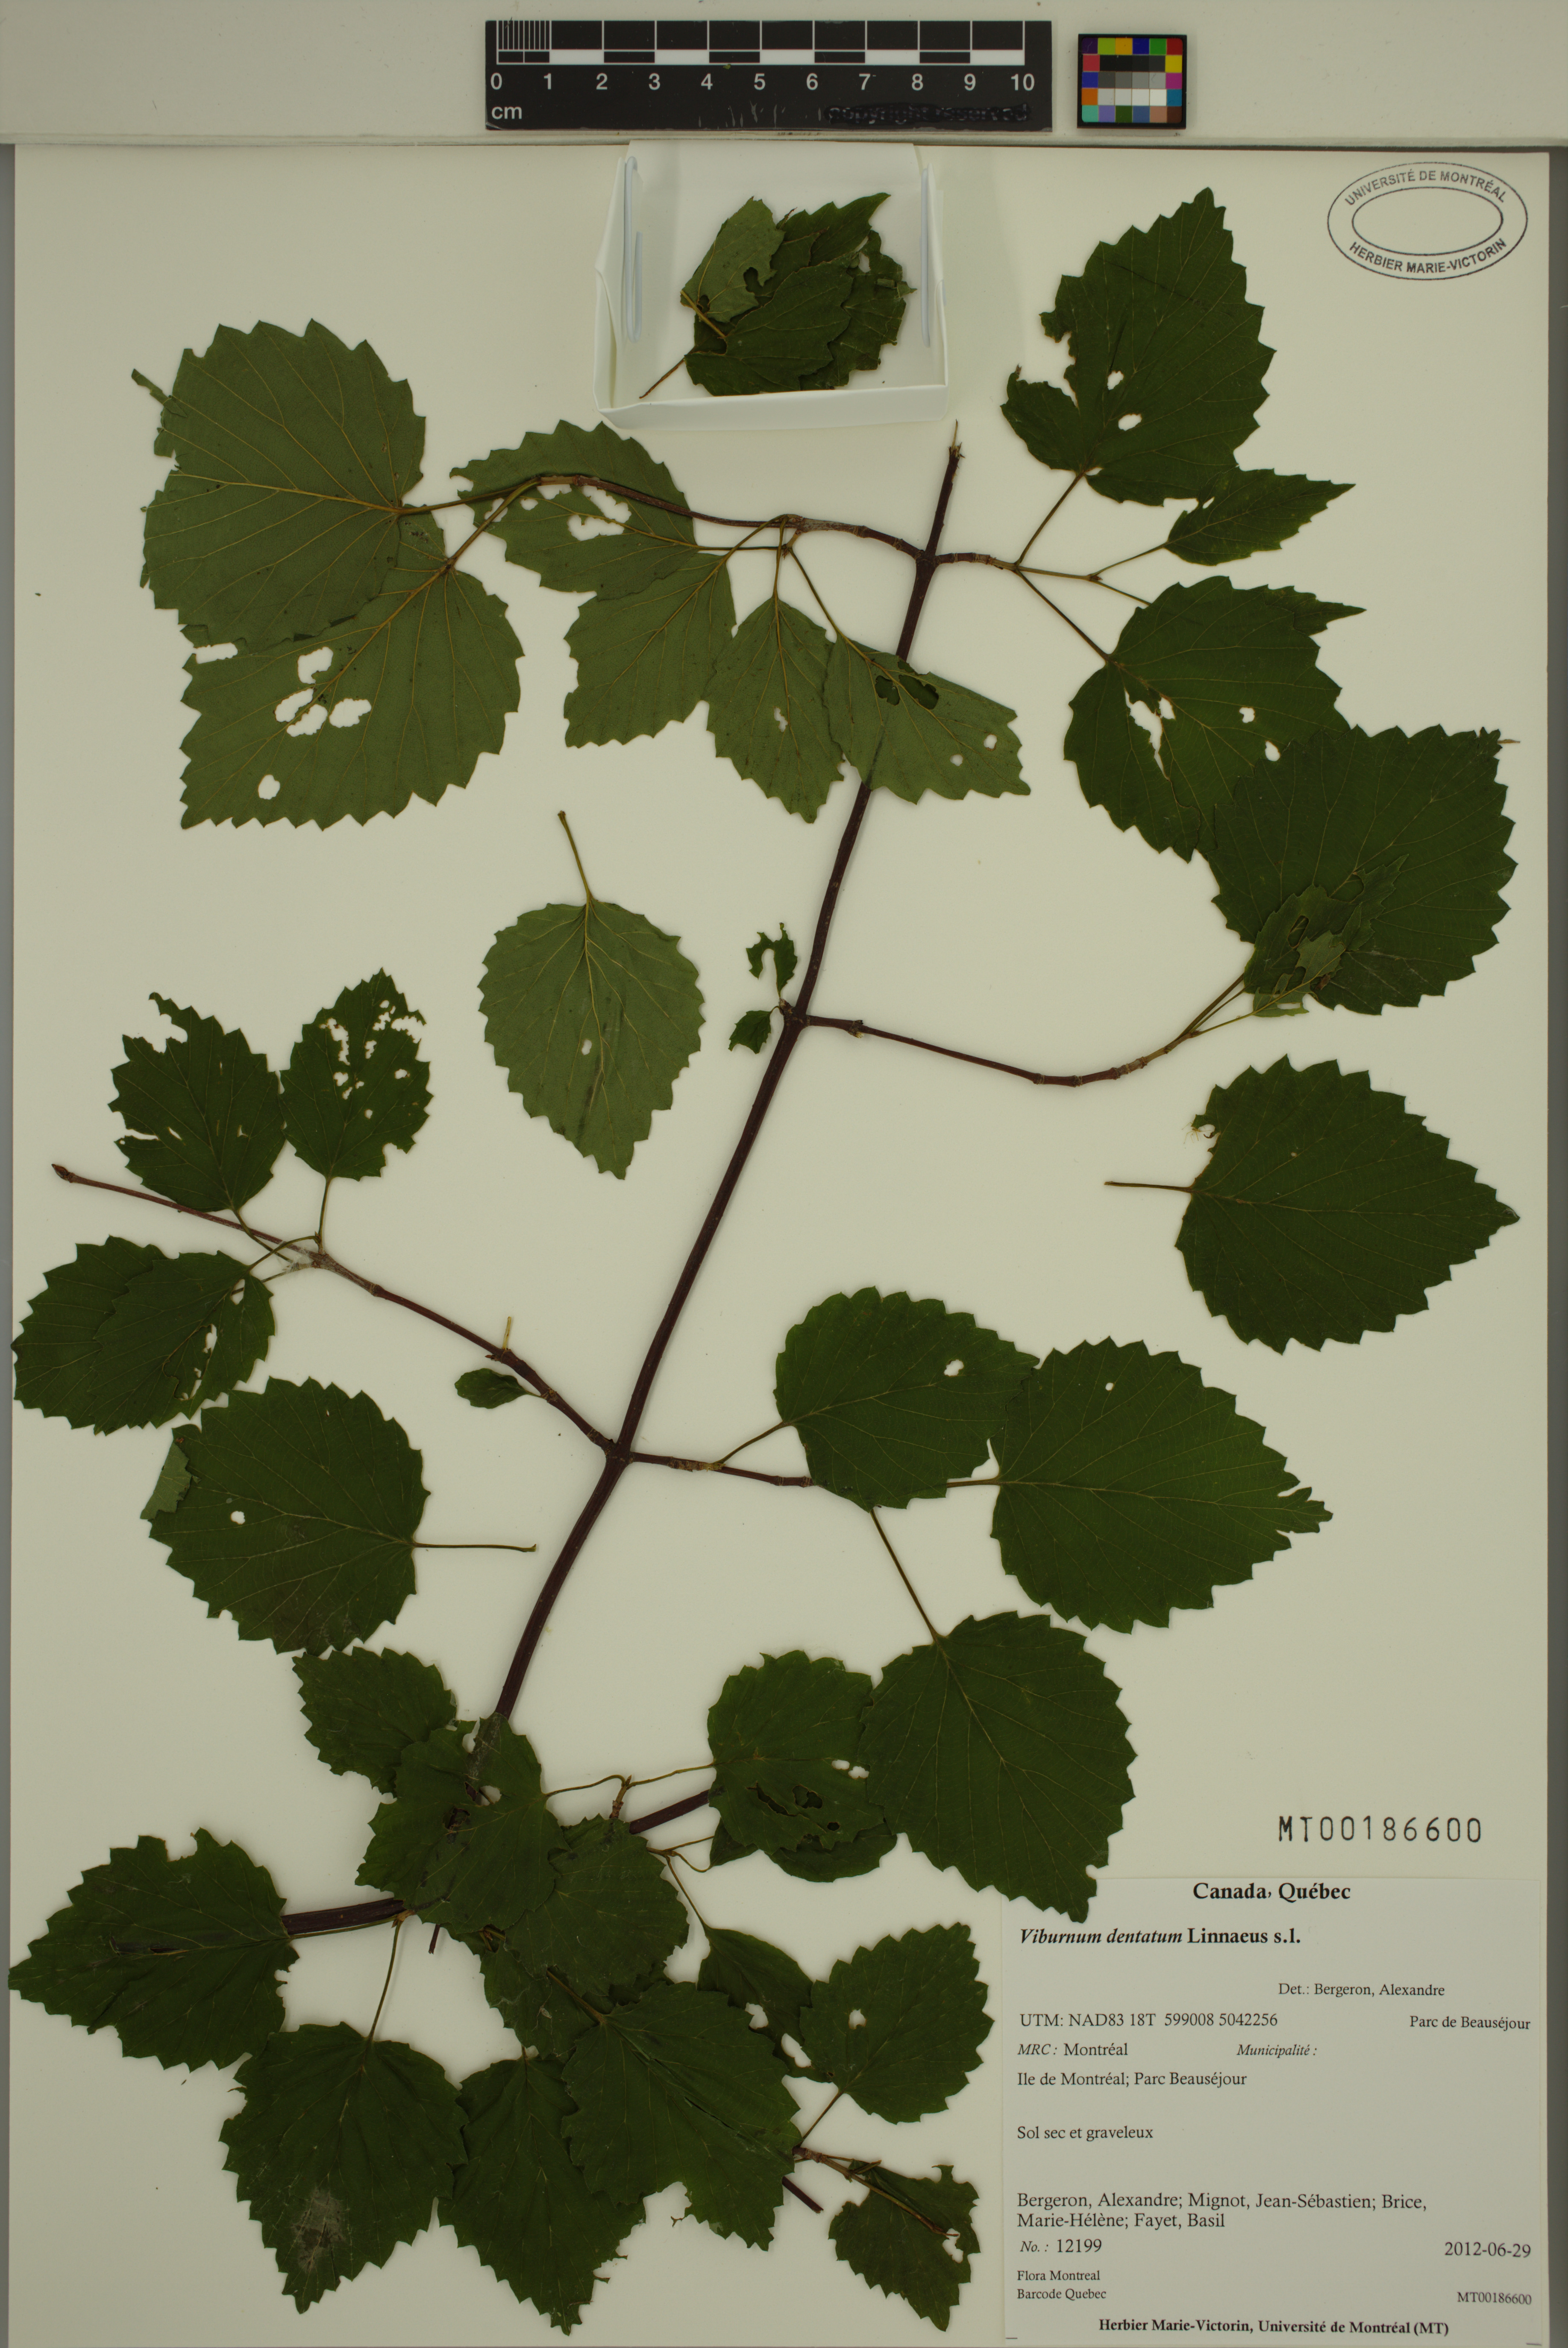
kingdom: Plantae
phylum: Tracheophyta
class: Magnoliopsida
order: Dipsacales
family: Viburnaceae
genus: Viburnum
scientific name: Viburnum dentatum
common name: Arrow-wood
